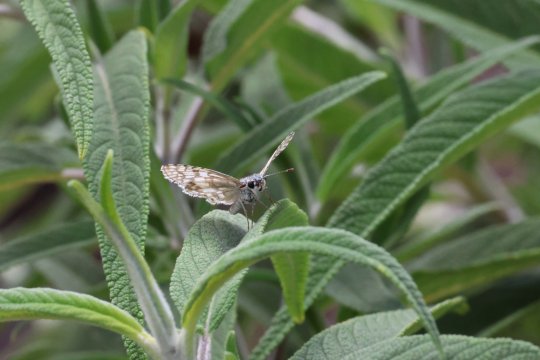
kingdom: Animalia
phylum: Arthropoda
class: Insecta
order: Lepidoptera
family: Hesperiidae
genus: Pyrgus
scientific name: Pyrgus communis
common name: Common Checkered-Skipper
